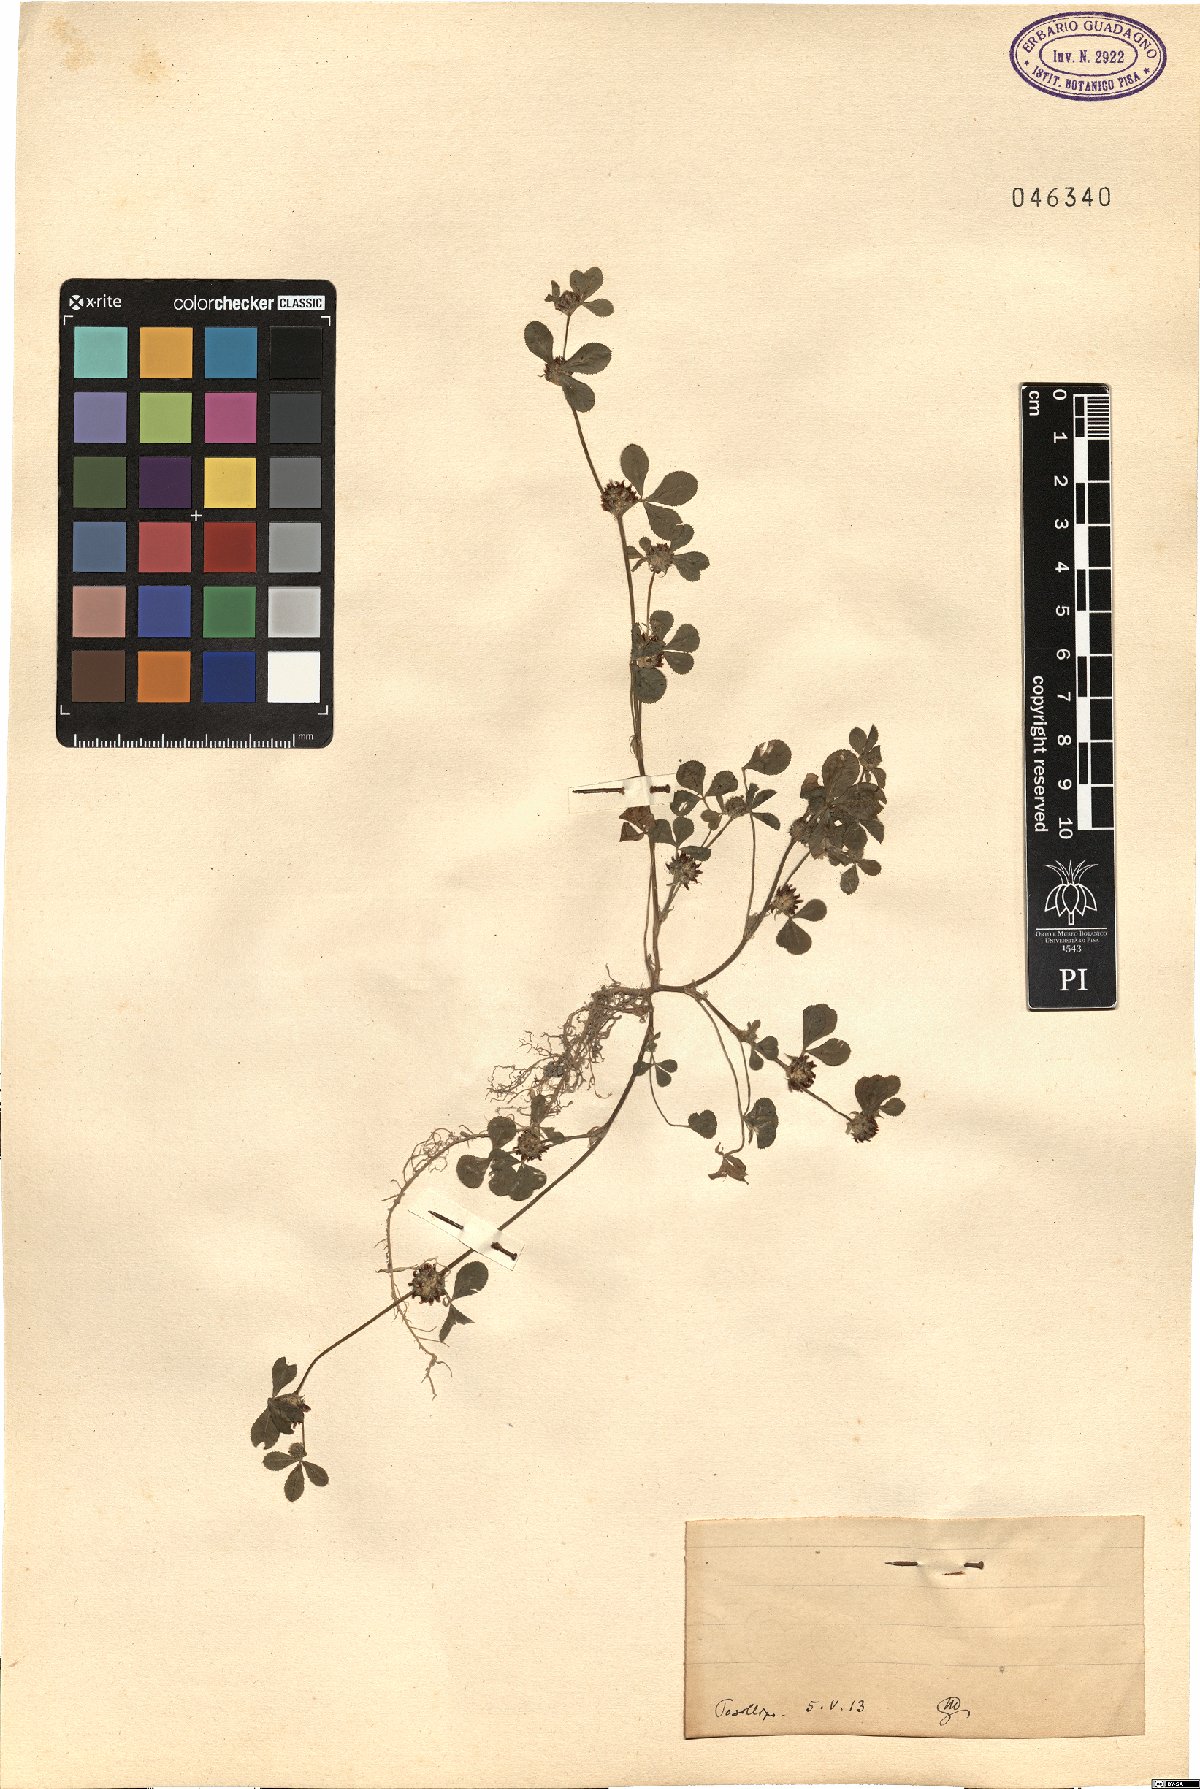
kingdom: Plantae
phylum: Tracheophyta
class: Magnoliopsida
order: Fabales
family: Fabaceae
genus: Trifolium
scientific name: Trifolium
